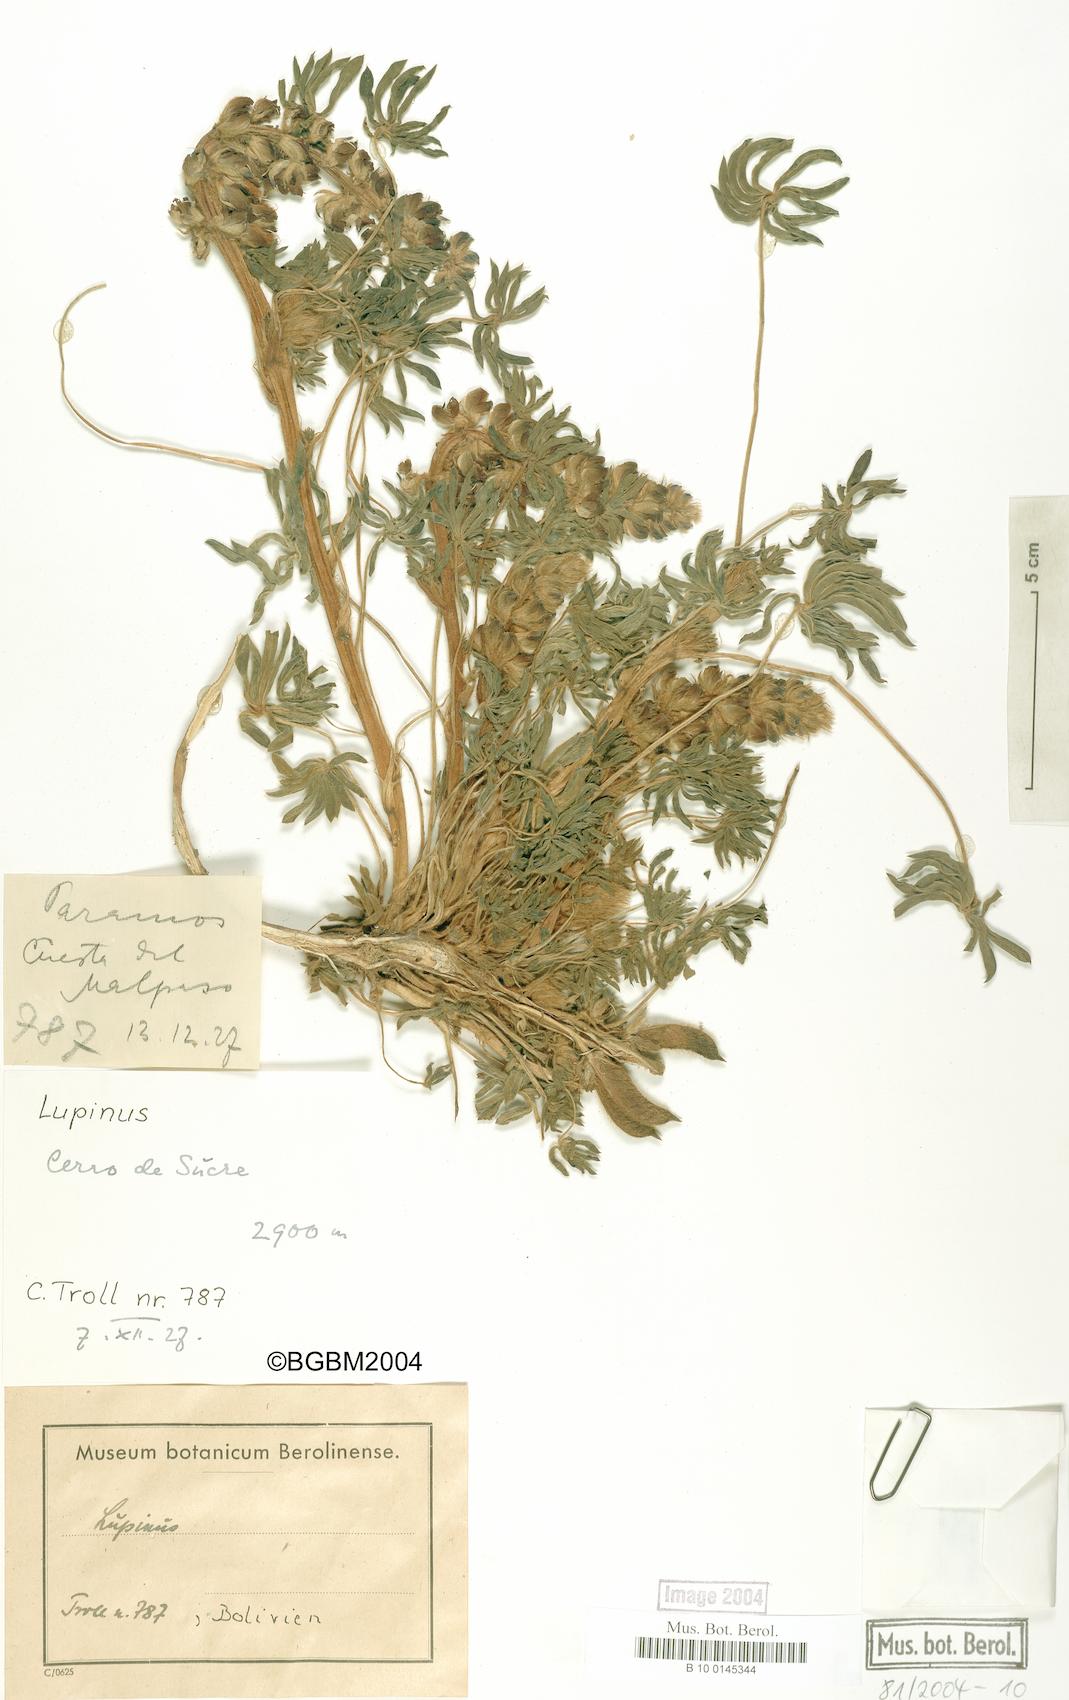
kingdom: Plantae
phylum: Tracheophyta
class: Magnoliopsida
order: Fabales
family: Fabaceae
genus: Lupinus
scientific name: Lupinus
